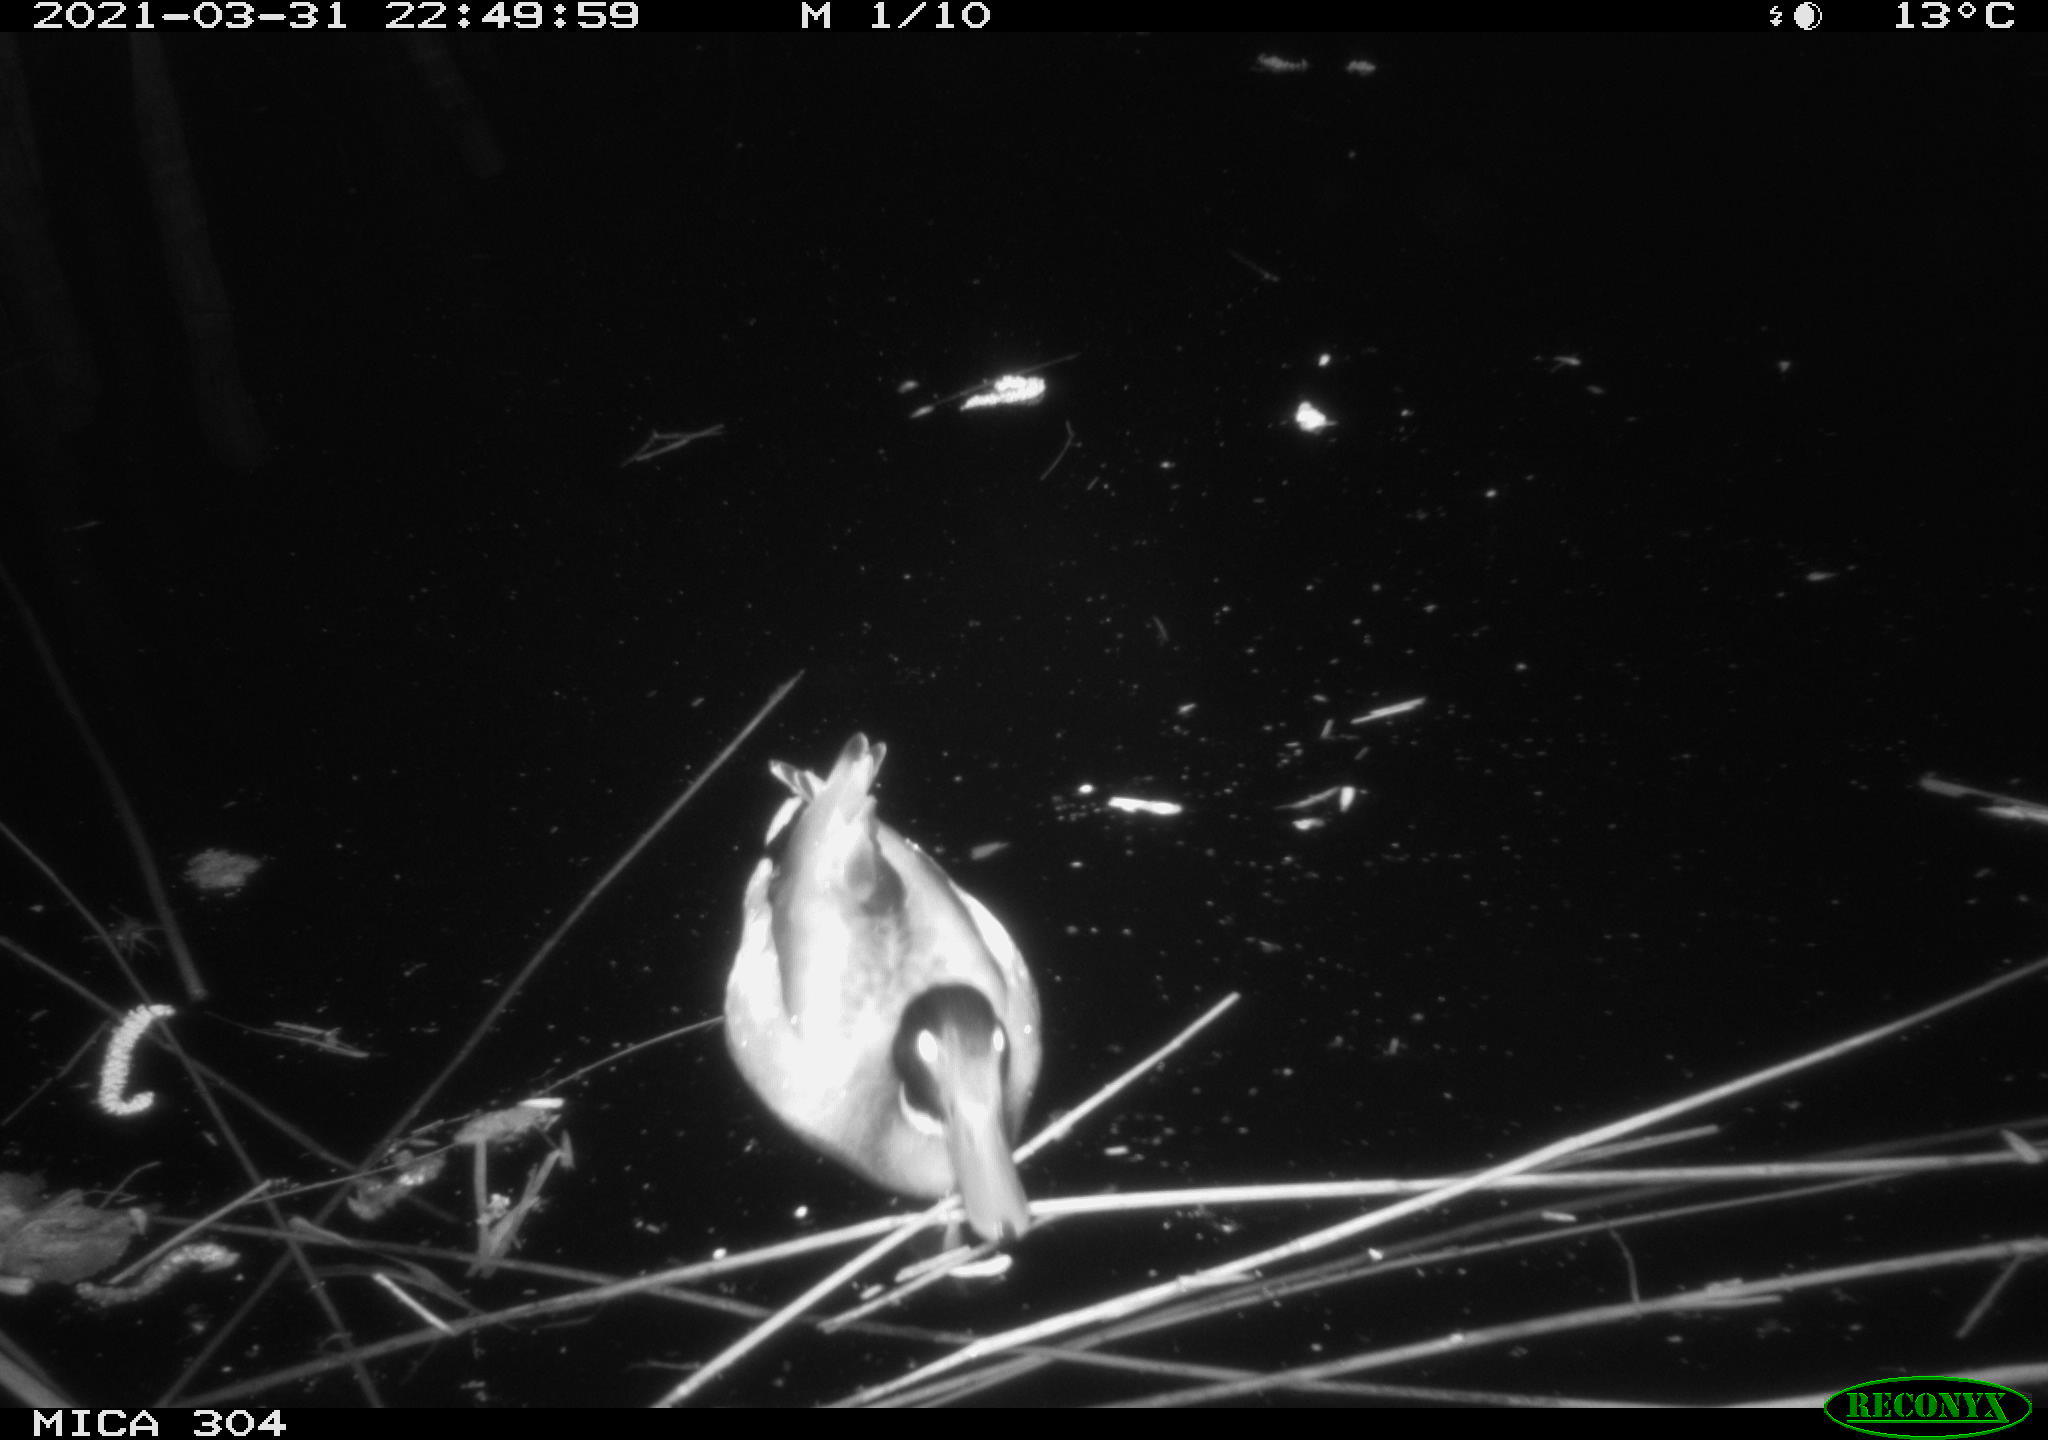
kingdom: Animalia
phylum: Chordata
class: Aves
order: Anseriformes
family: Anatidae
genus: Anas
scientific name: Anas platyrhynchos
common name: Mallard
